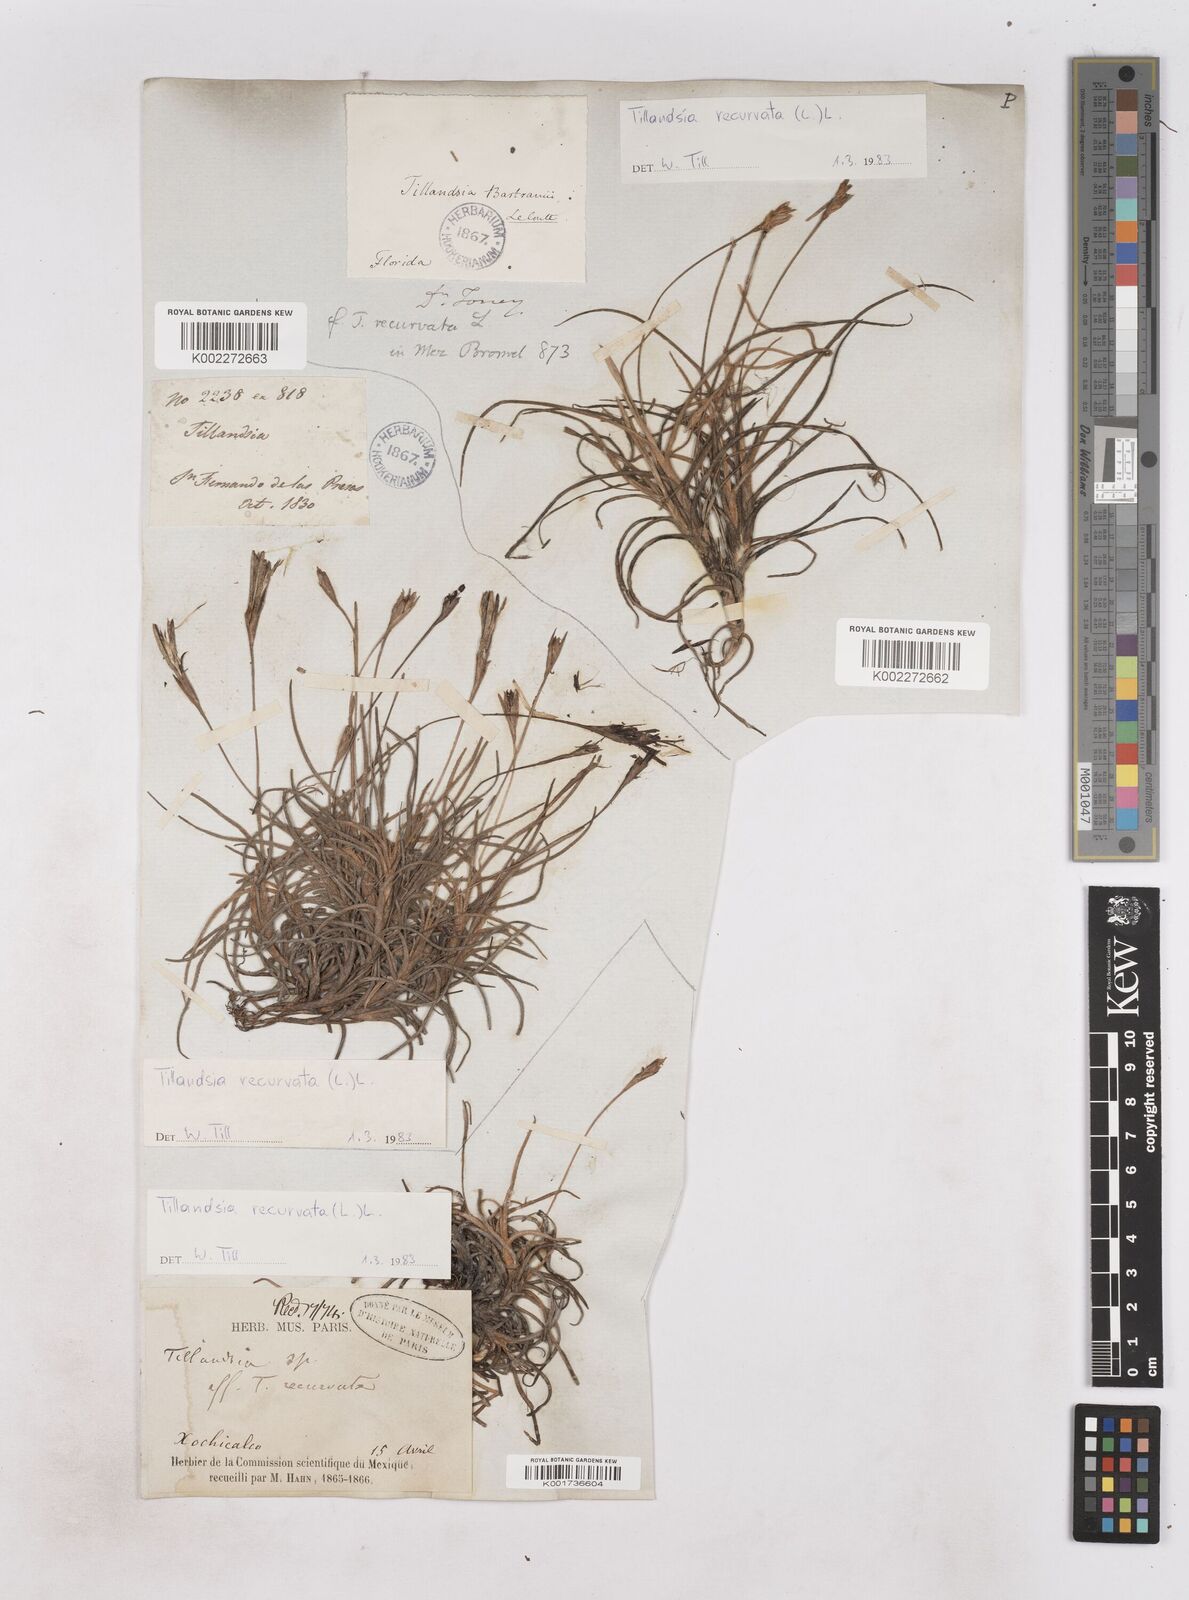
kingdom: Plantae
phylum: Tracheophyta
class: Liliopsida
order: Poales
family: Bromeliaceae
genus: Tillandsia
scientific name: Tillandsia recurvata
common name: Small ballmoss
